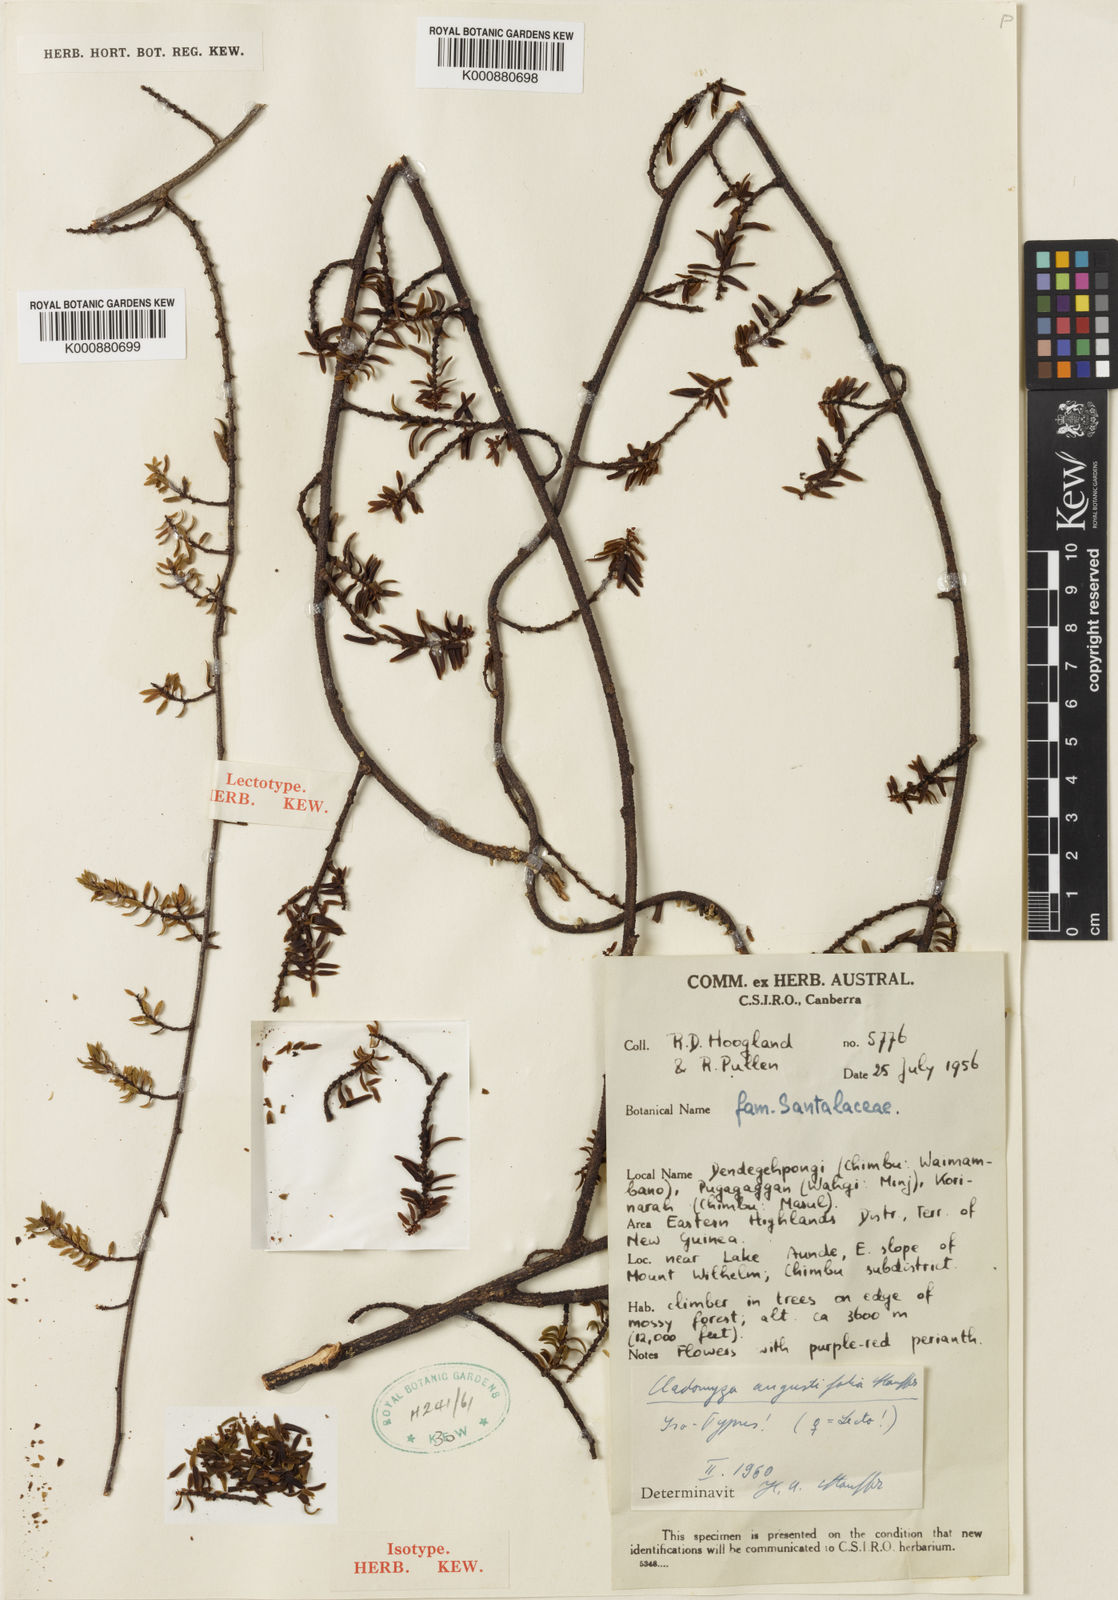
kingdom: Plantae
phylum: Tracheophyta
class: Magnoliopsida
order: Santalales
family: Amphorogynaceae
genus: Cladomyza
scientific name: Cladomyza angustifolia
